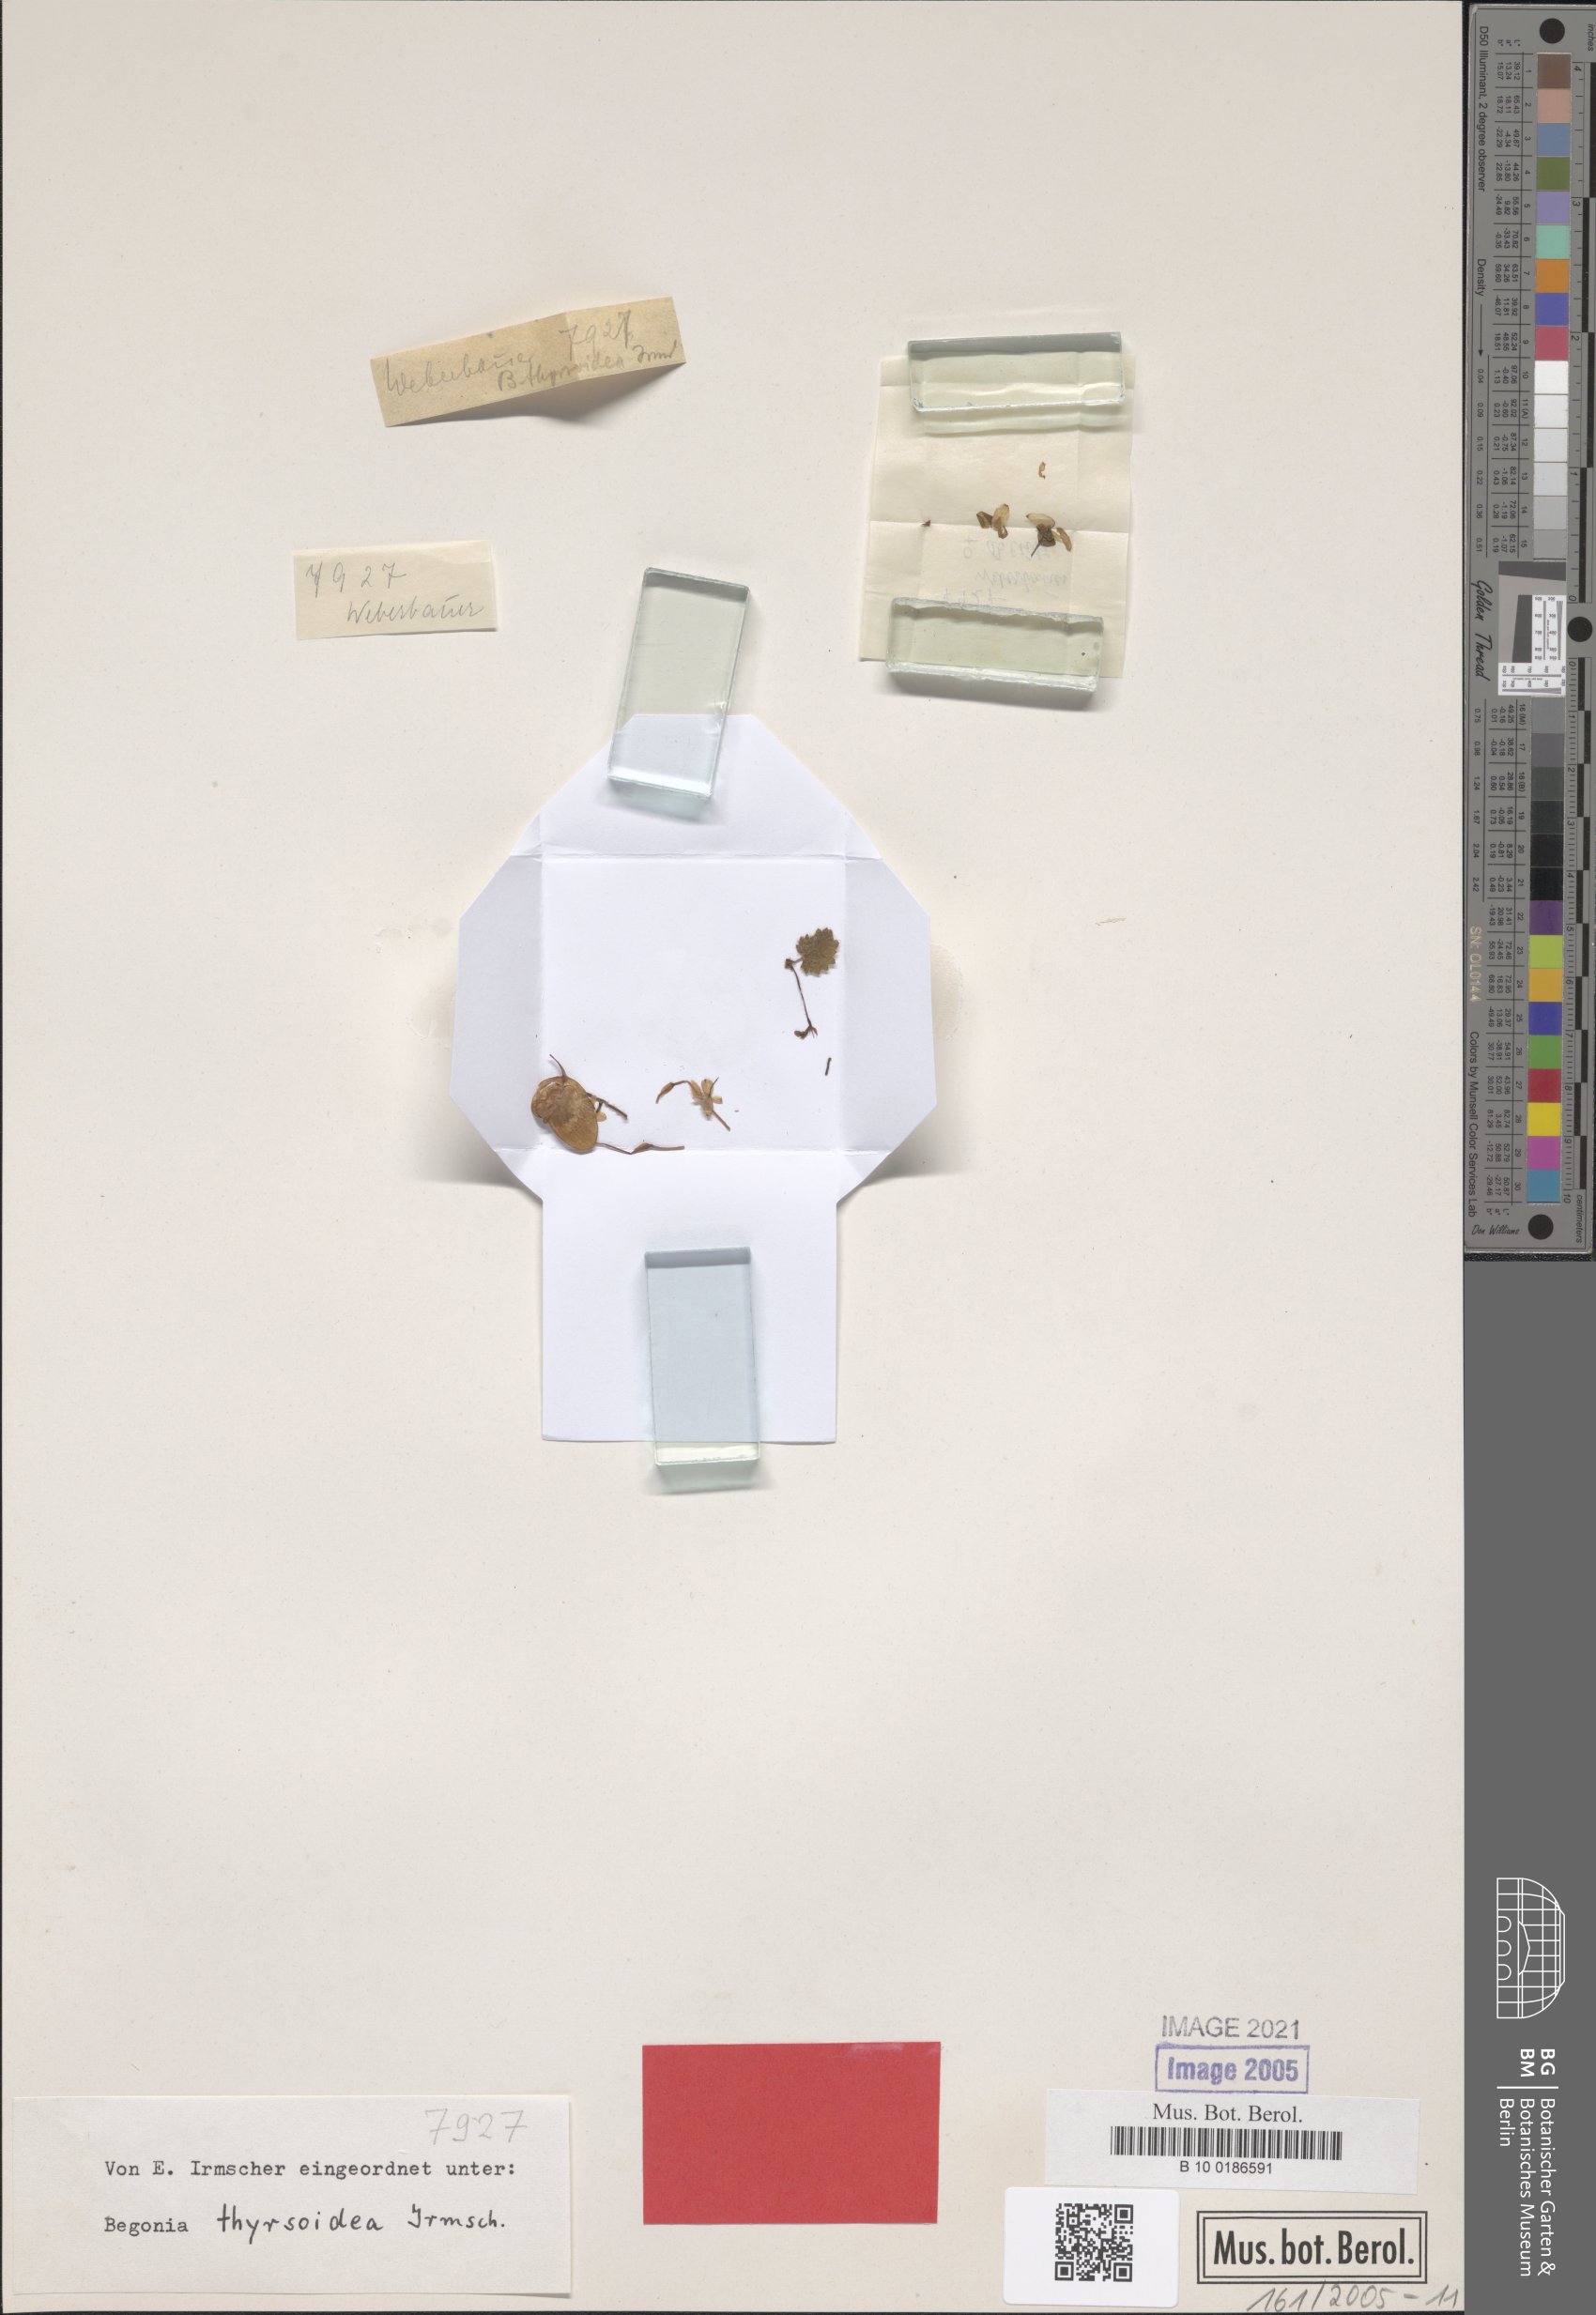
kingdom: Plantae
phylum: Tracheophyta
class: Magnoliopsida
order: Cucurbitales
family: Begoniaceae
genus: Begonia
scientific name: Begonia thyrsoidea
